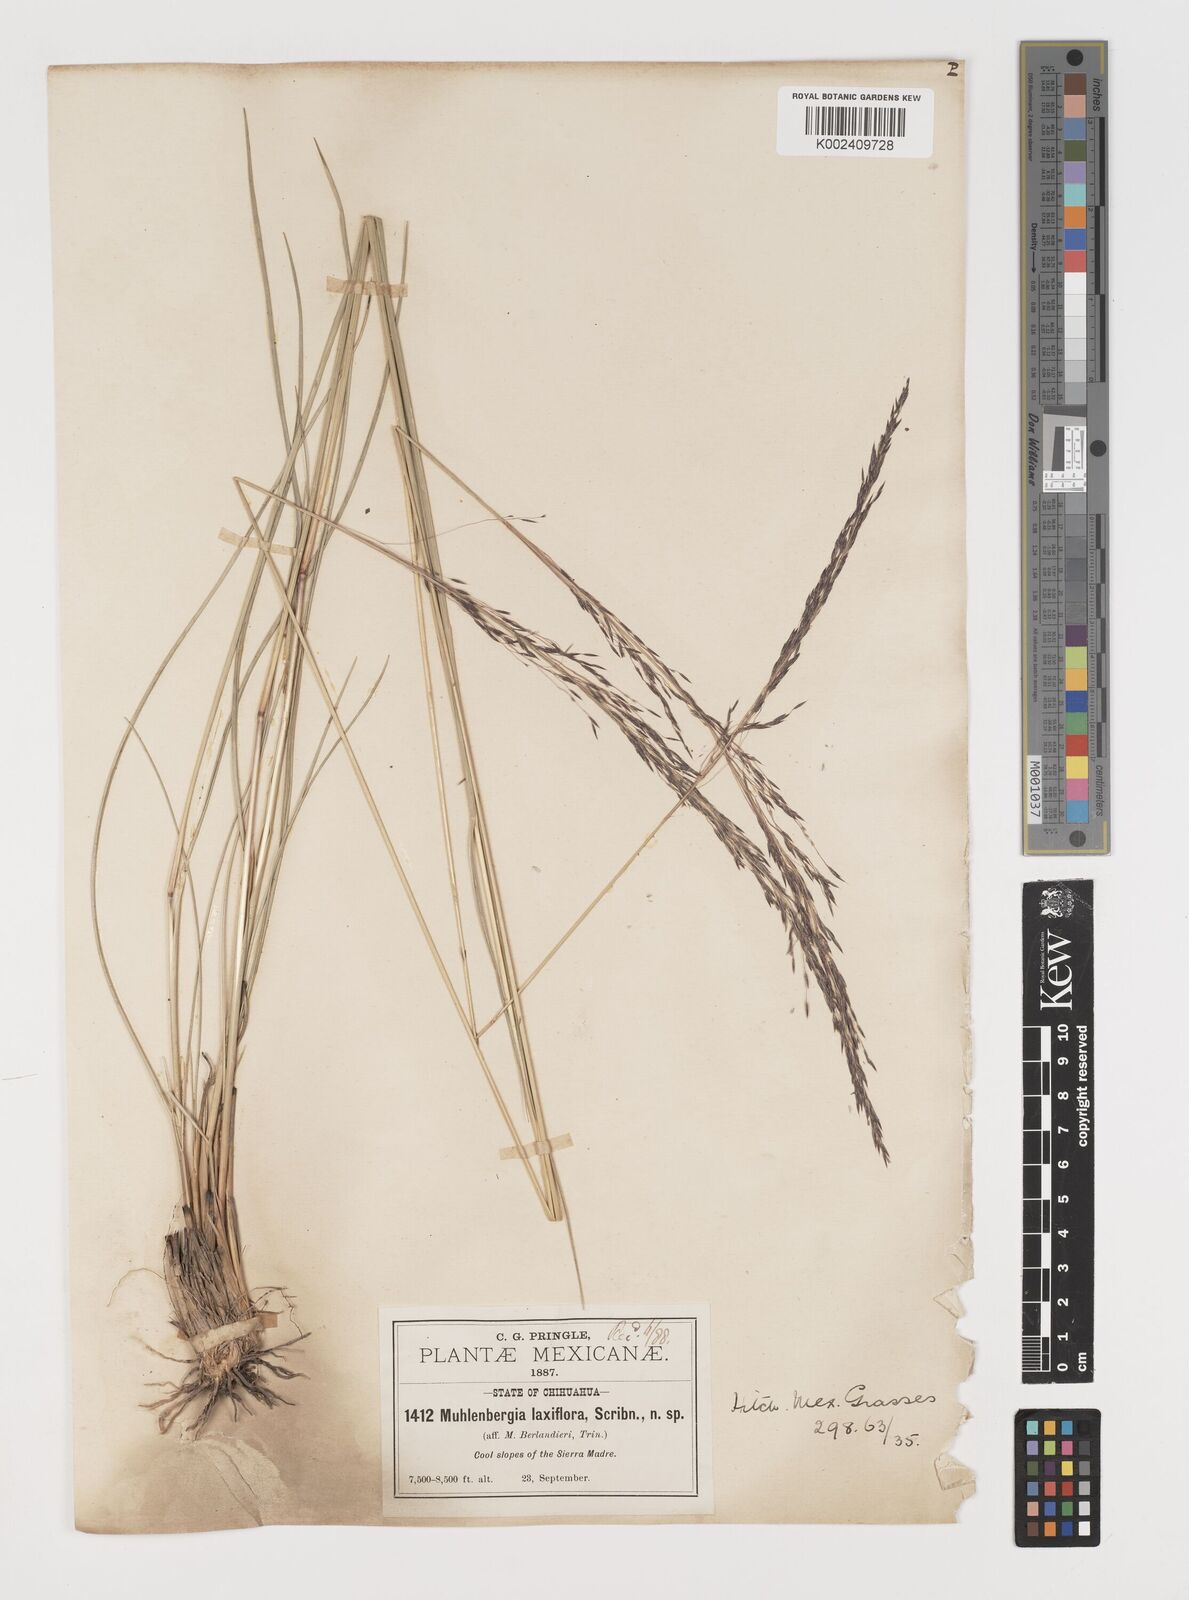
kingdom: Plantae
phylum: Tracheophyta
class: Liliopsida
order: Poales
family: Poaceae
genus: Muhlenbergia
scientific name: Muhlenbergia rigida
